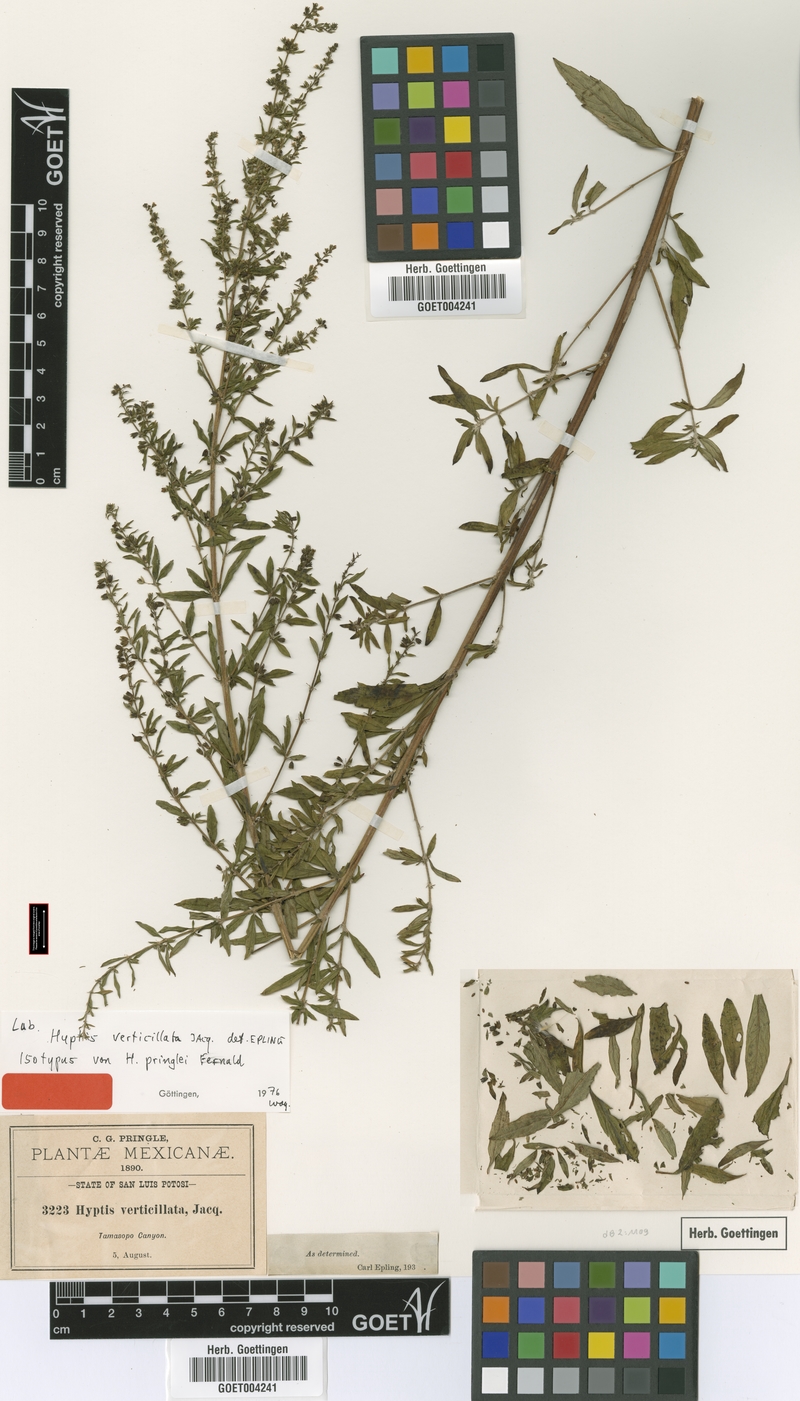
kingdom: Plantae
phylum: Tracheophyta
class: Magnoliopsida
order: Lamiales
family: Lamiaceae
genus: Condea
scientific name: Condea verticillata
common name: John charles
